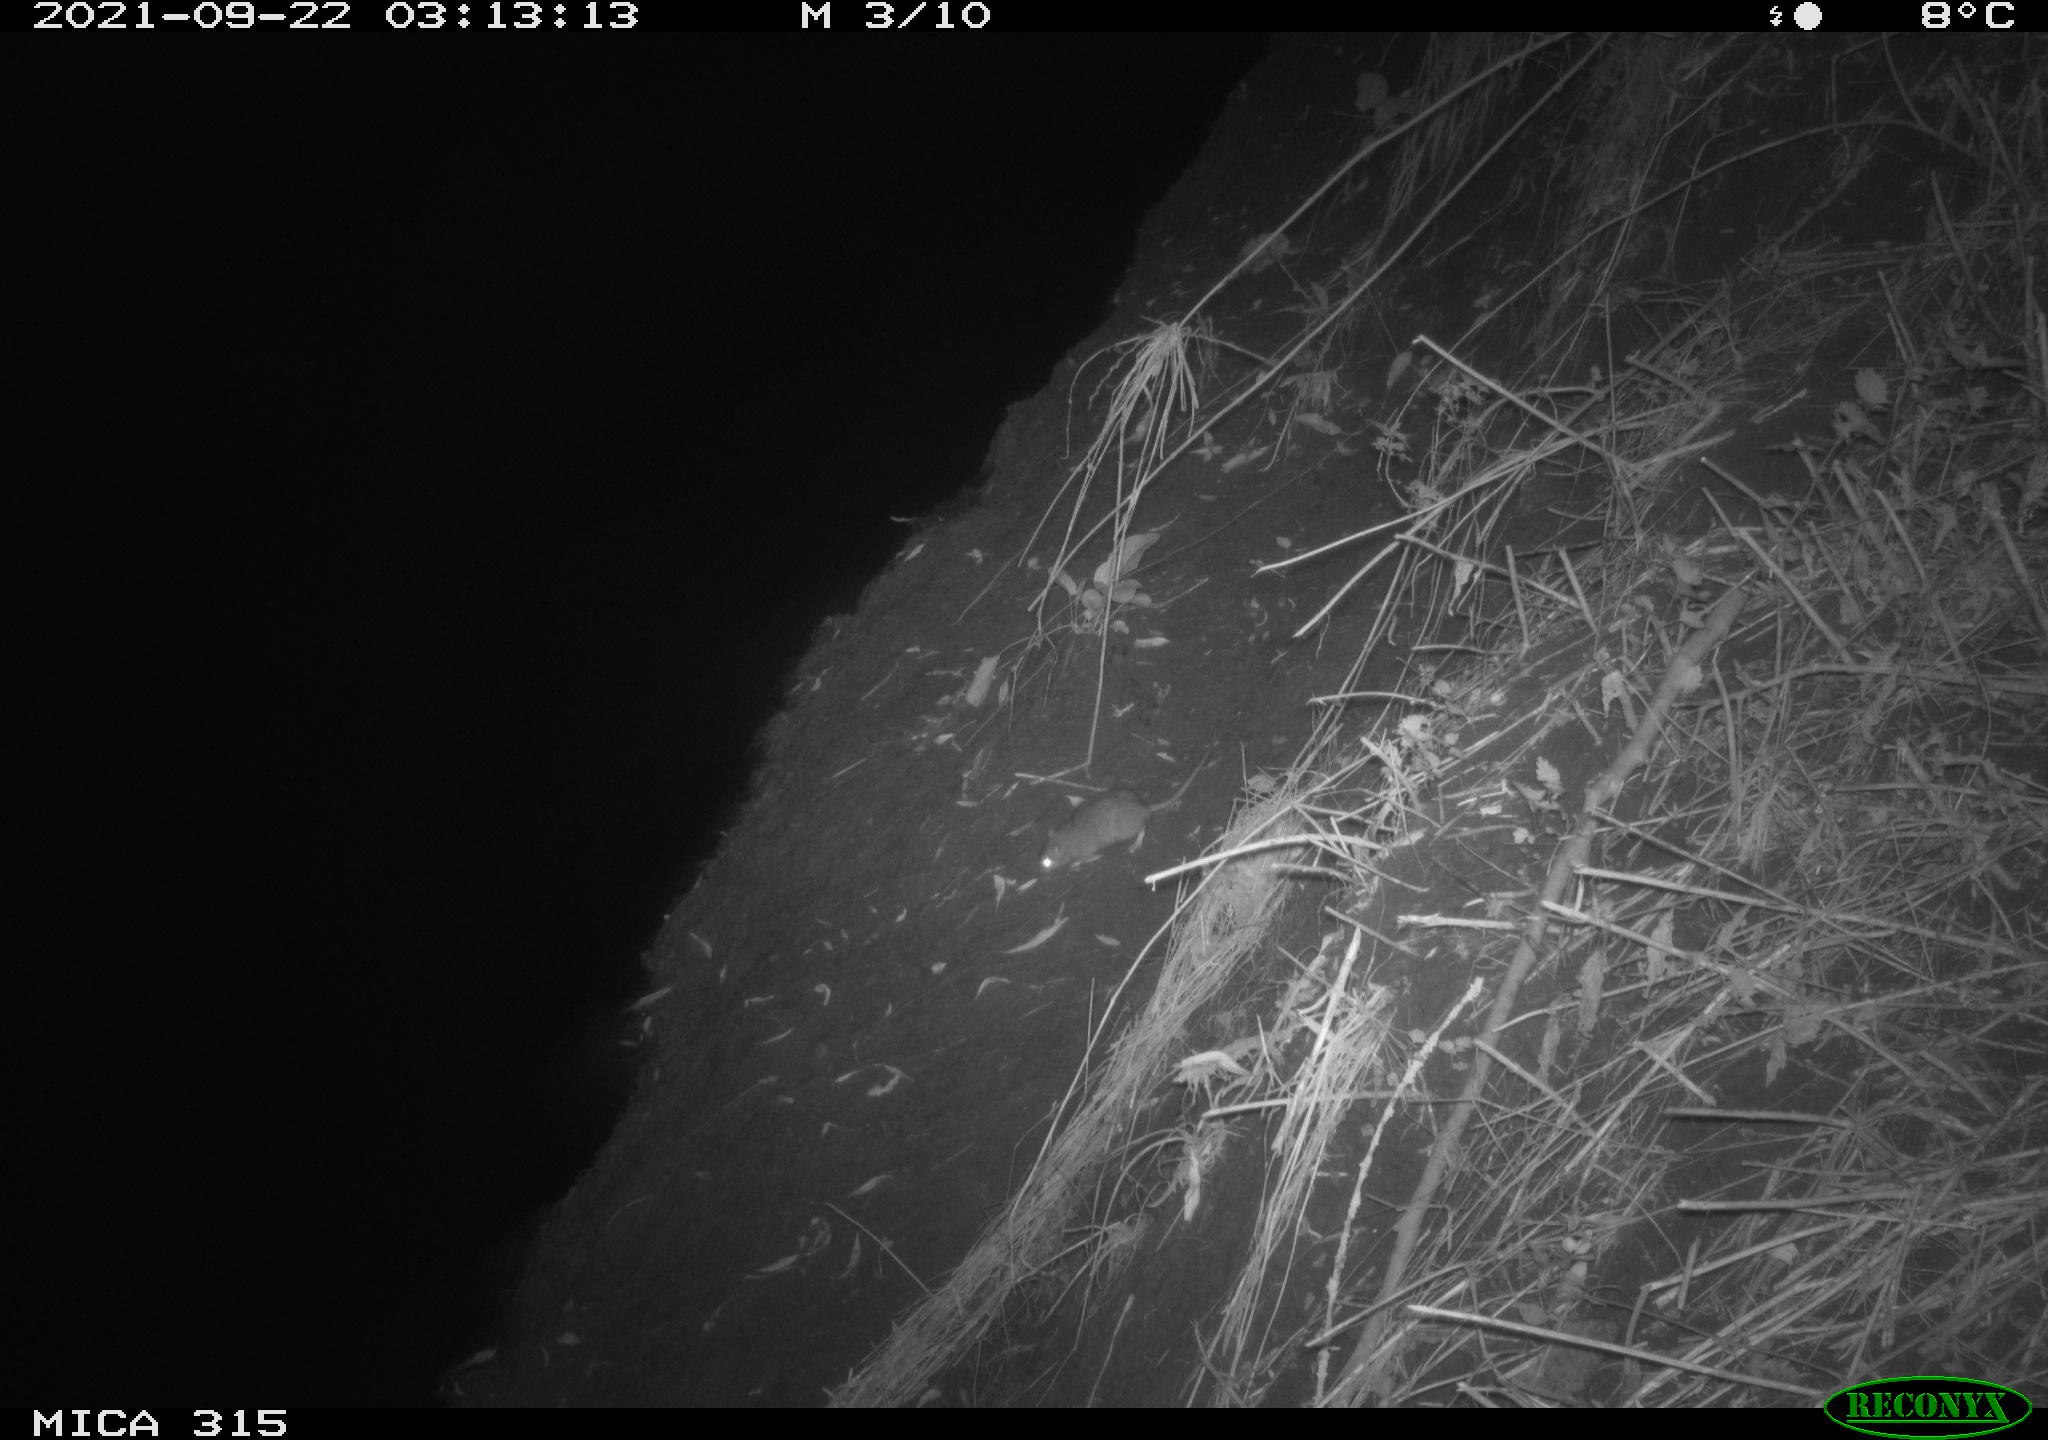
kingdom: Animalia
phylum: Chordata
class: Mammalia
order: Rodentia
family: Muridae
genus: Rattus
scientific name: Rattus norvegicus
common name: Brown rat
